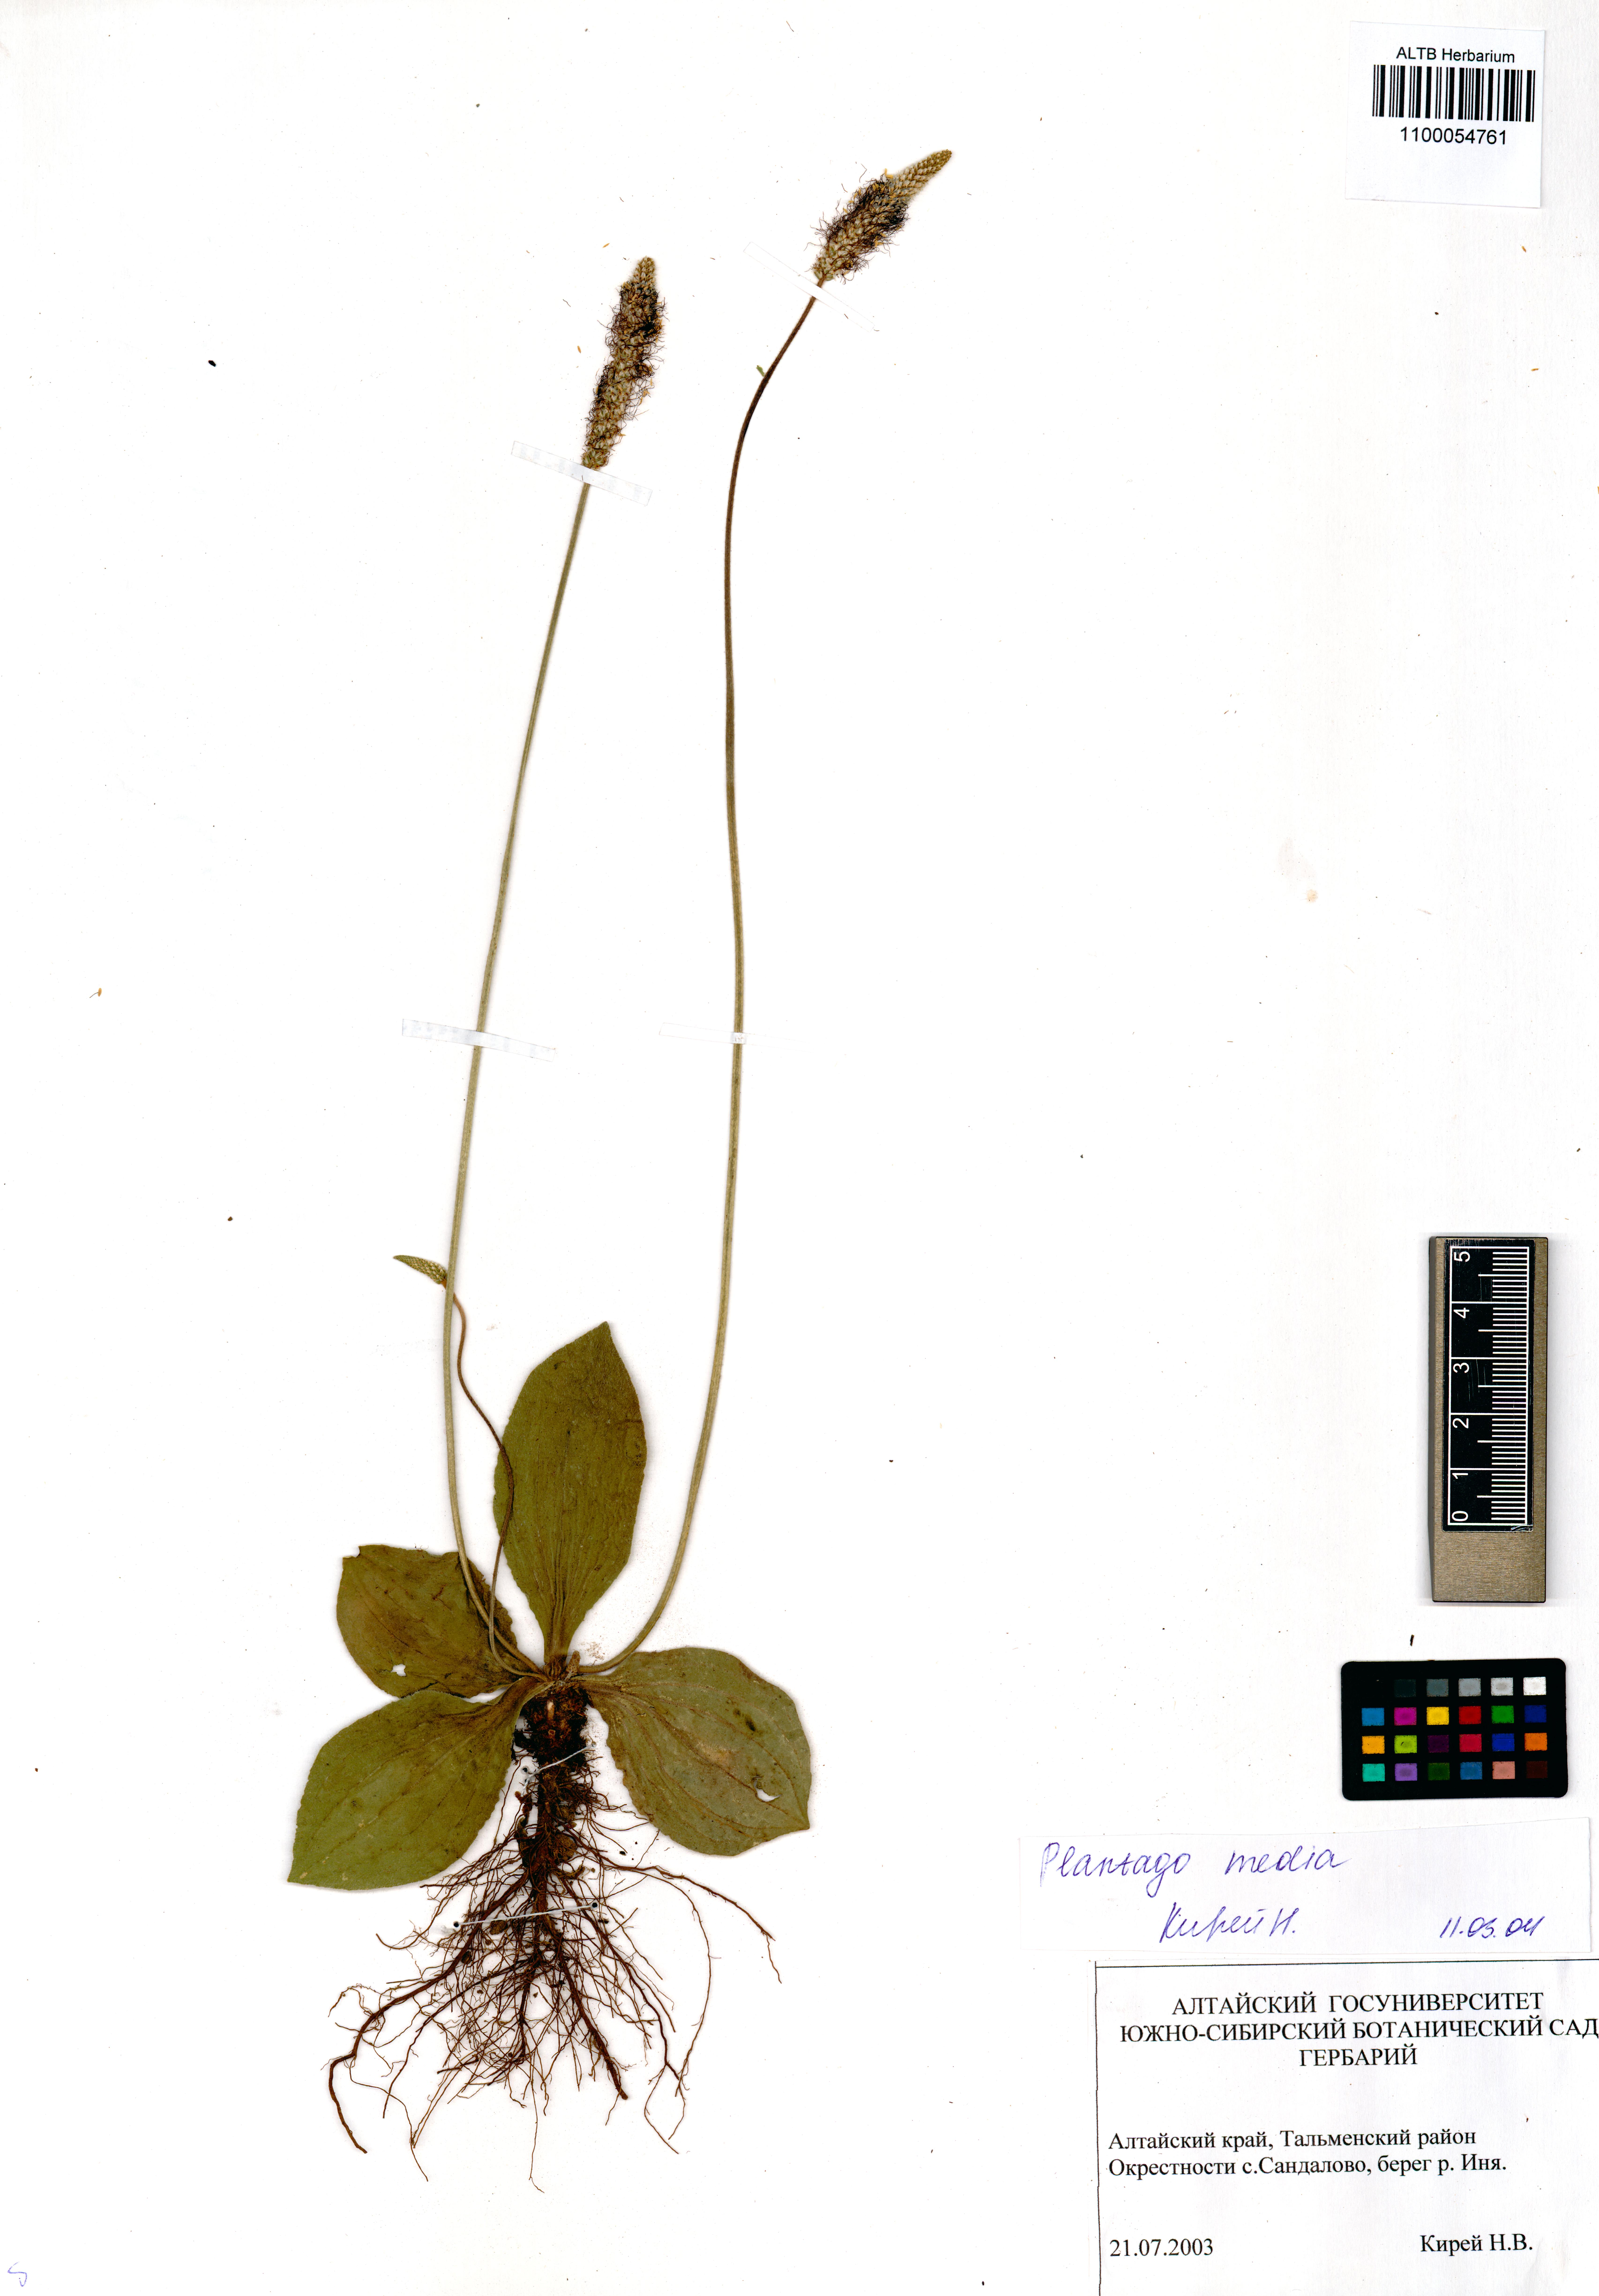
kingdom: Plantae
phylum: Tracheophyta
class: Magnoliopsida
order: Lamiales
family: Plantaginaceae
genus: Plantago
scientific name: Plantago media
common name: Hoary plantain
